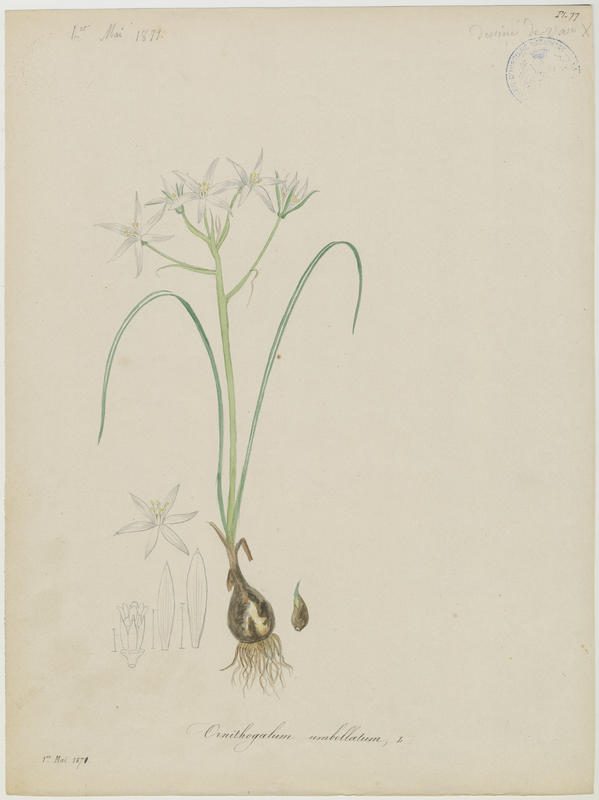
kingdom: Plantae
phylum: Tracheophyta
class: Liliopsida
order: Asparagales
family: Asparagaceae
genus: Ornithogalum
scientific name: Ornithogalum umbellatum
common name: Garden star-of-bethlehem
